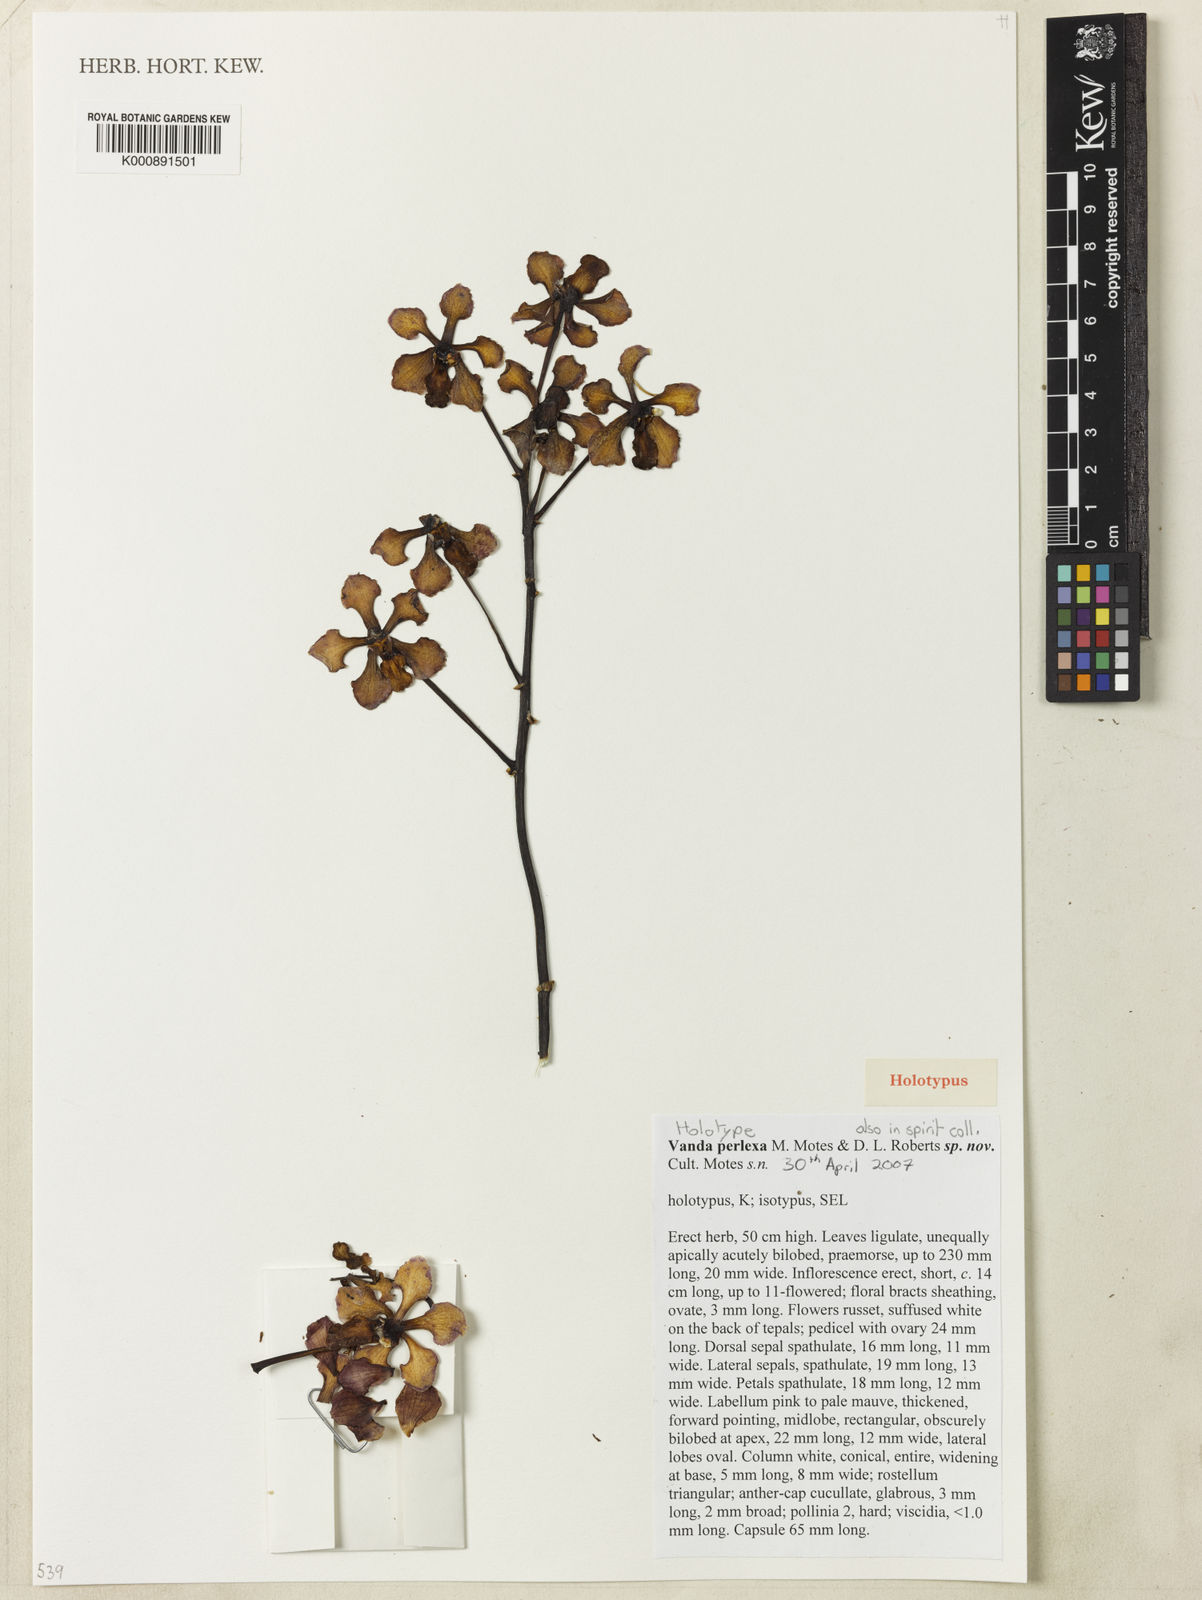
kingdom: Plantae
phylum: Tracheophyta
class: Liliopsida
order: Asparagales
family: Orchidaceae
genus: Vanda
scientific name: Vanda
